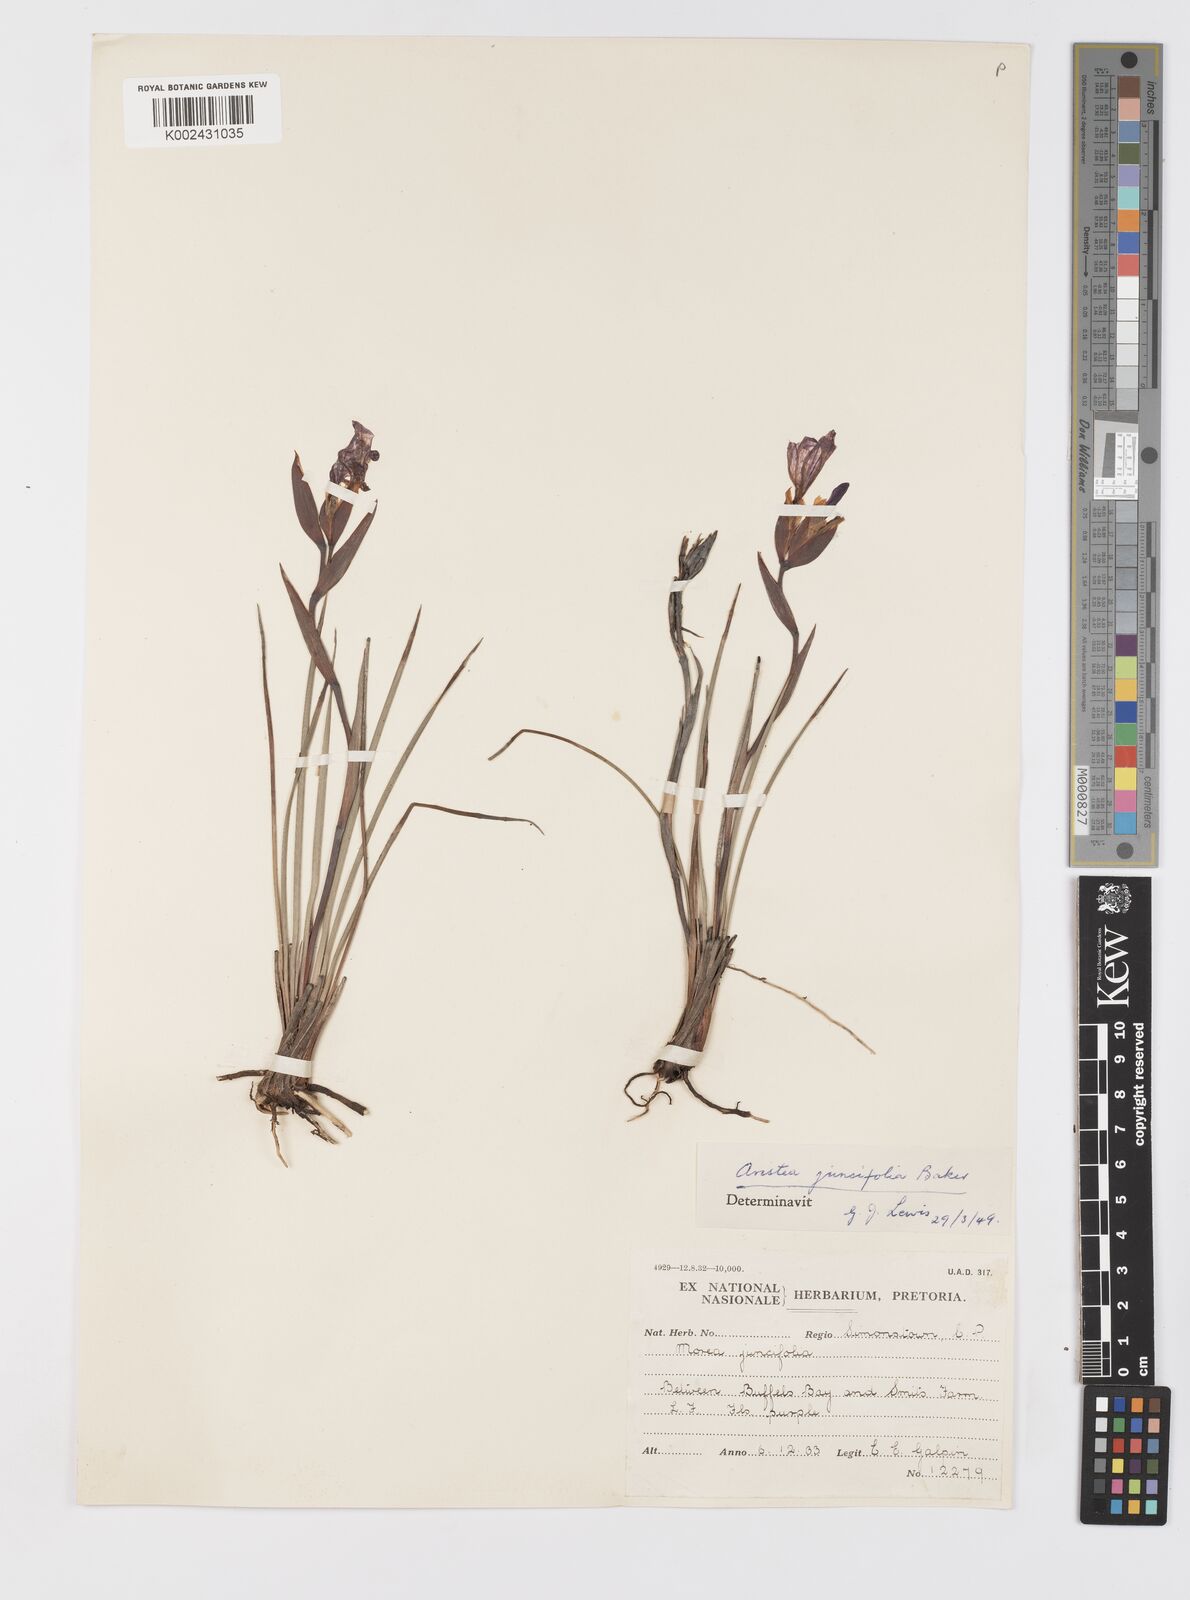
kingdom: Plantae
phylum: Tracheophyta
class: Liliopsida
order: Asparagales
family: Iridaceae
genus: Aristea
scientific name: Aristea juncifolia
